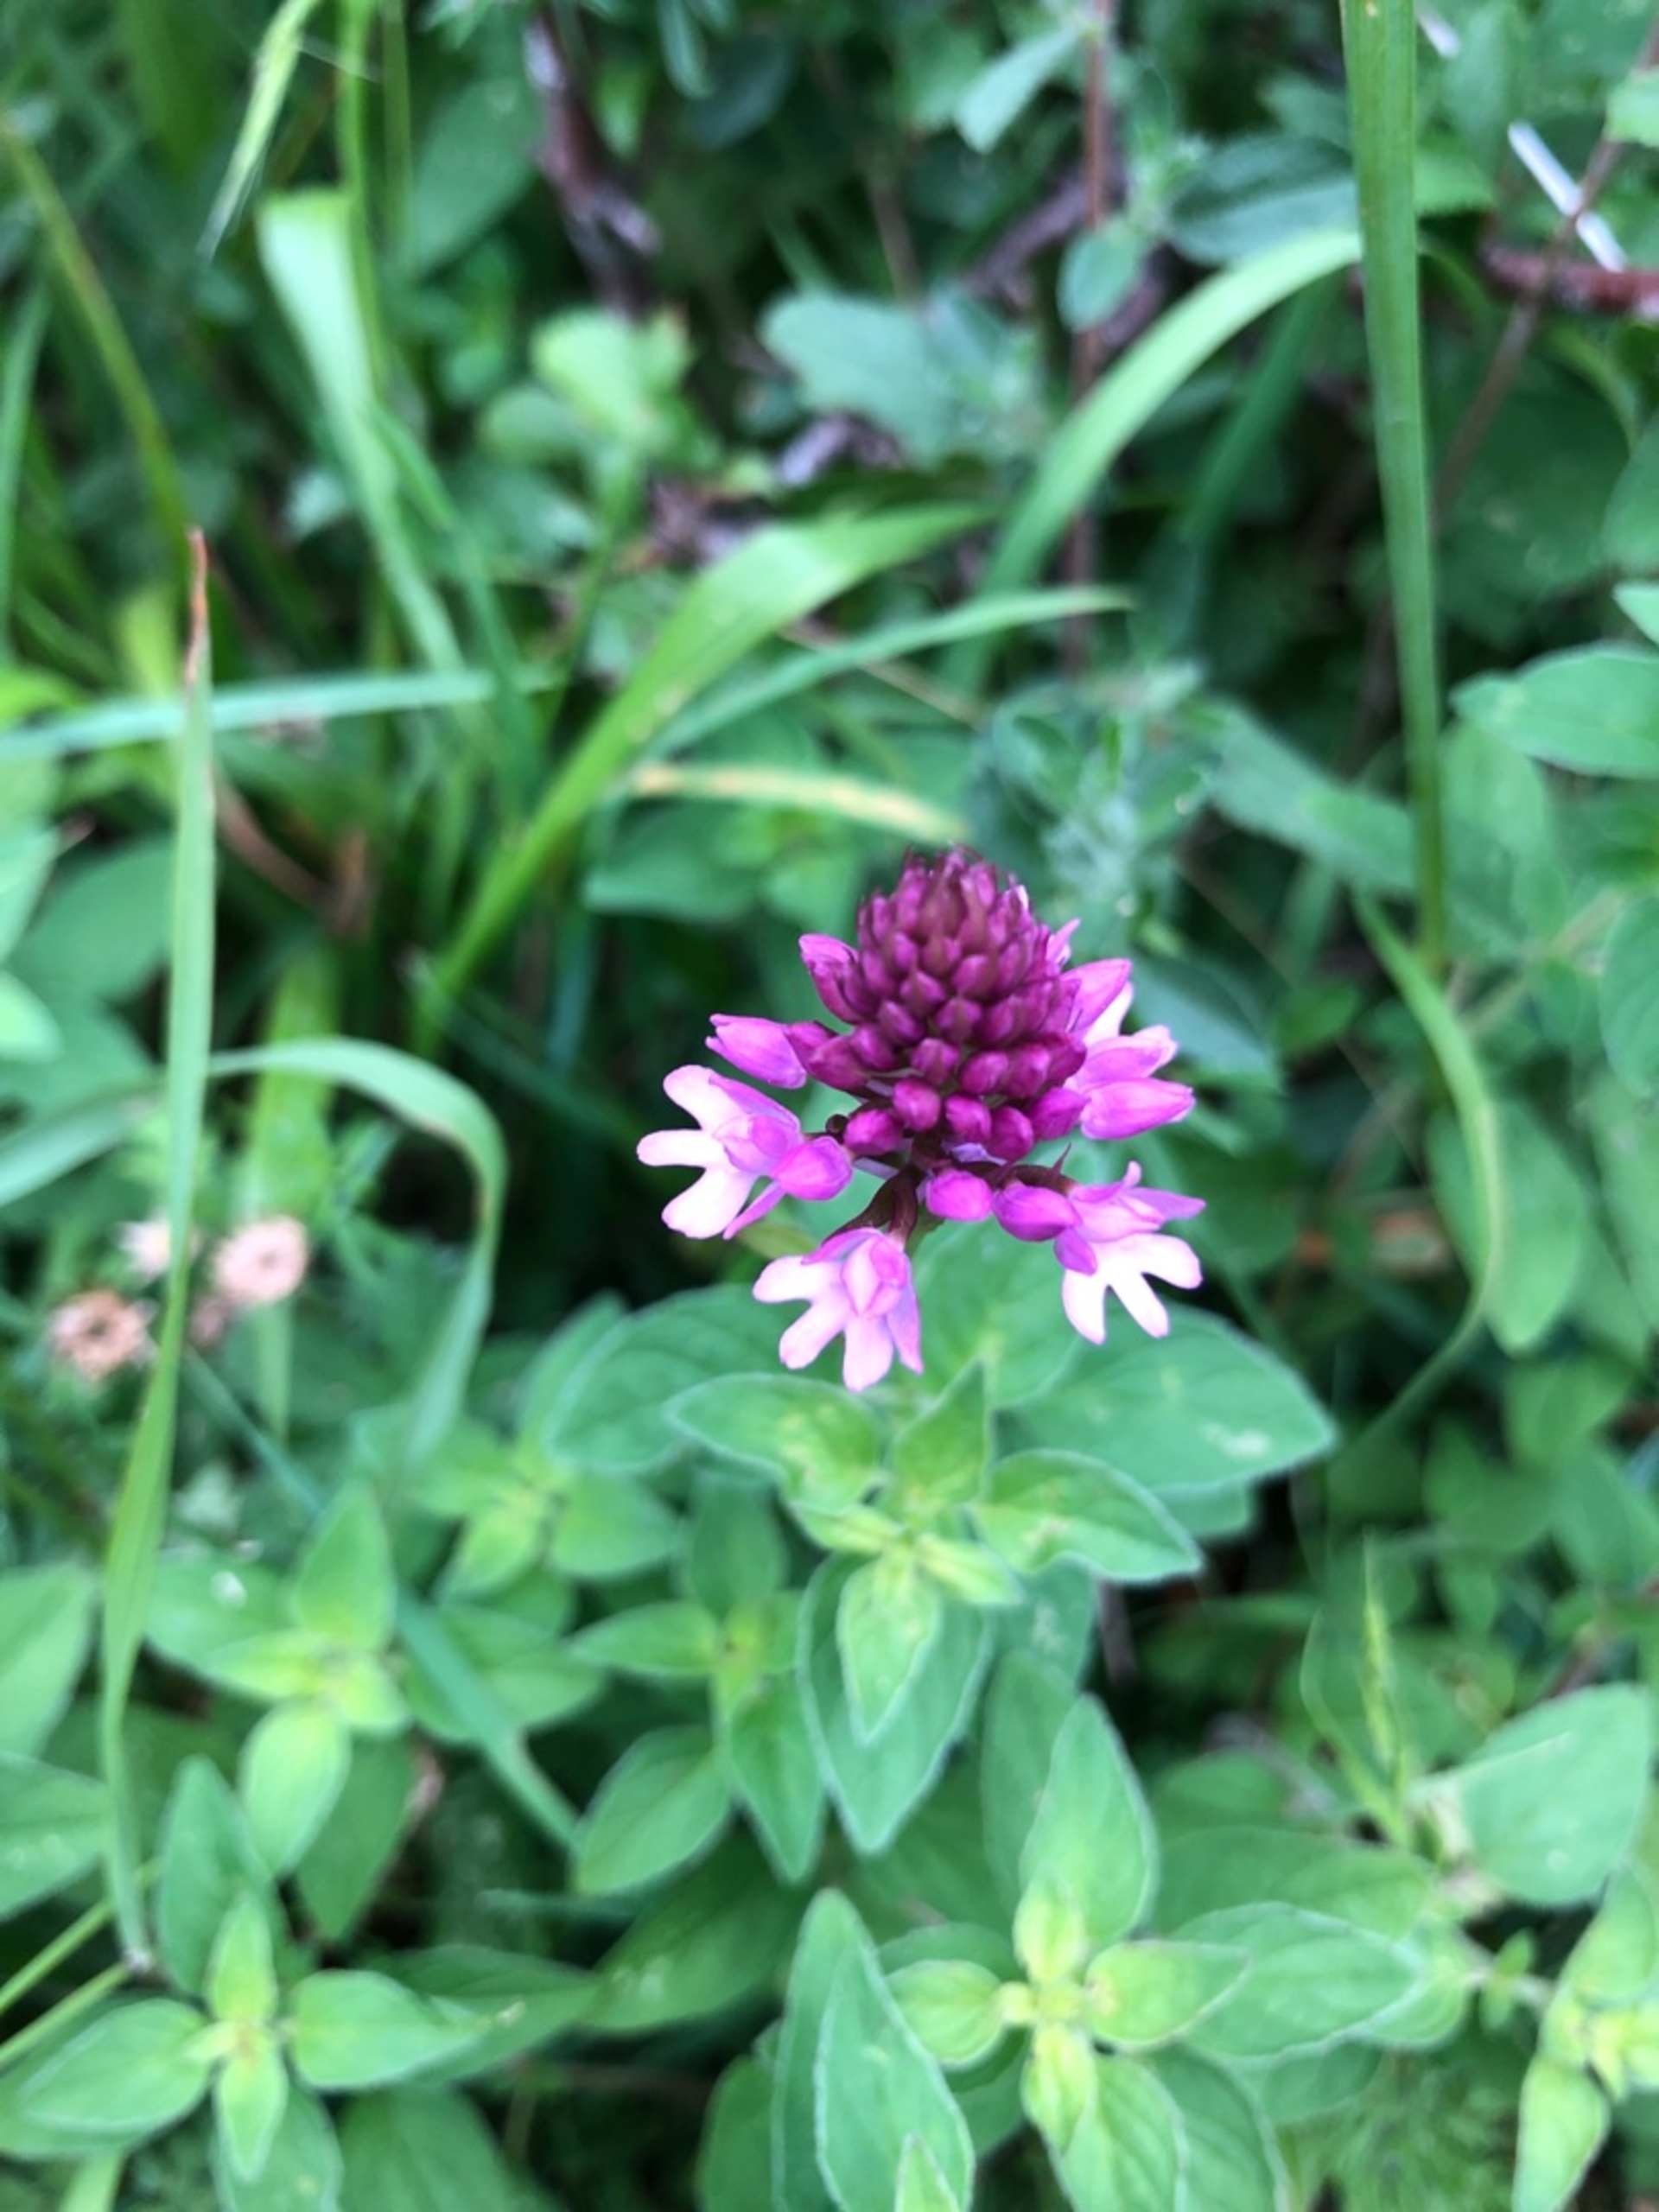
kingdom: Plantae
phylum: Tracheophyta
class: Liliopsida
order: Asparagales
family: Orchidaceae
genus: Anacamptis
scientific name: Anacamptis pyramidalis
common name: Horndrager
